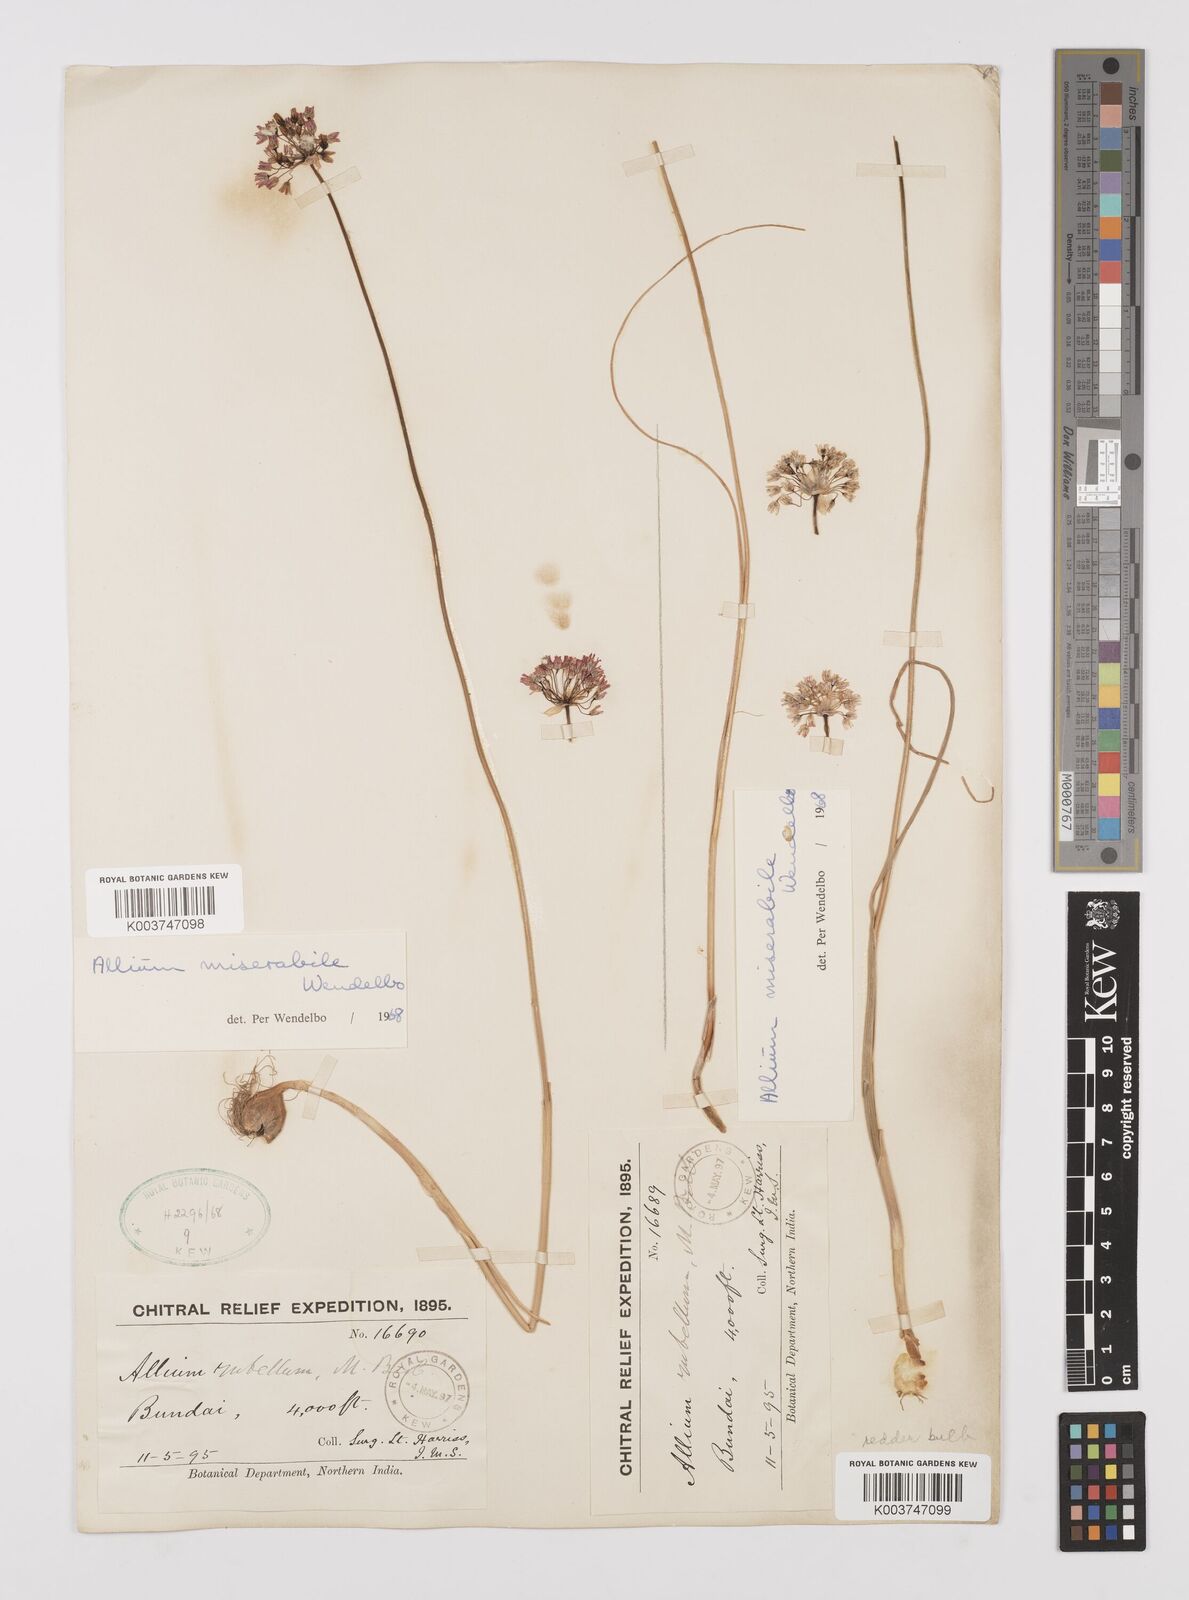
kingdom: Plantae
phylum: Tracheophyta
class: Liliopsida
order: Asparagales
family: Amaryllidaceae
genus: Allium
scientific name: Allium jacquemontii
